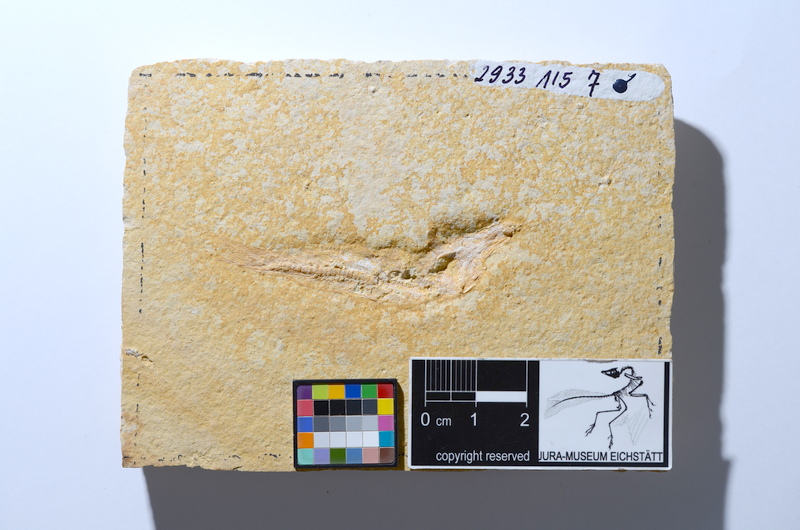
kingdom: Animalia
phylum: Chordata
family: Ascalaboidae
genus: Tharsis
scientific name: Tharsis dubius
